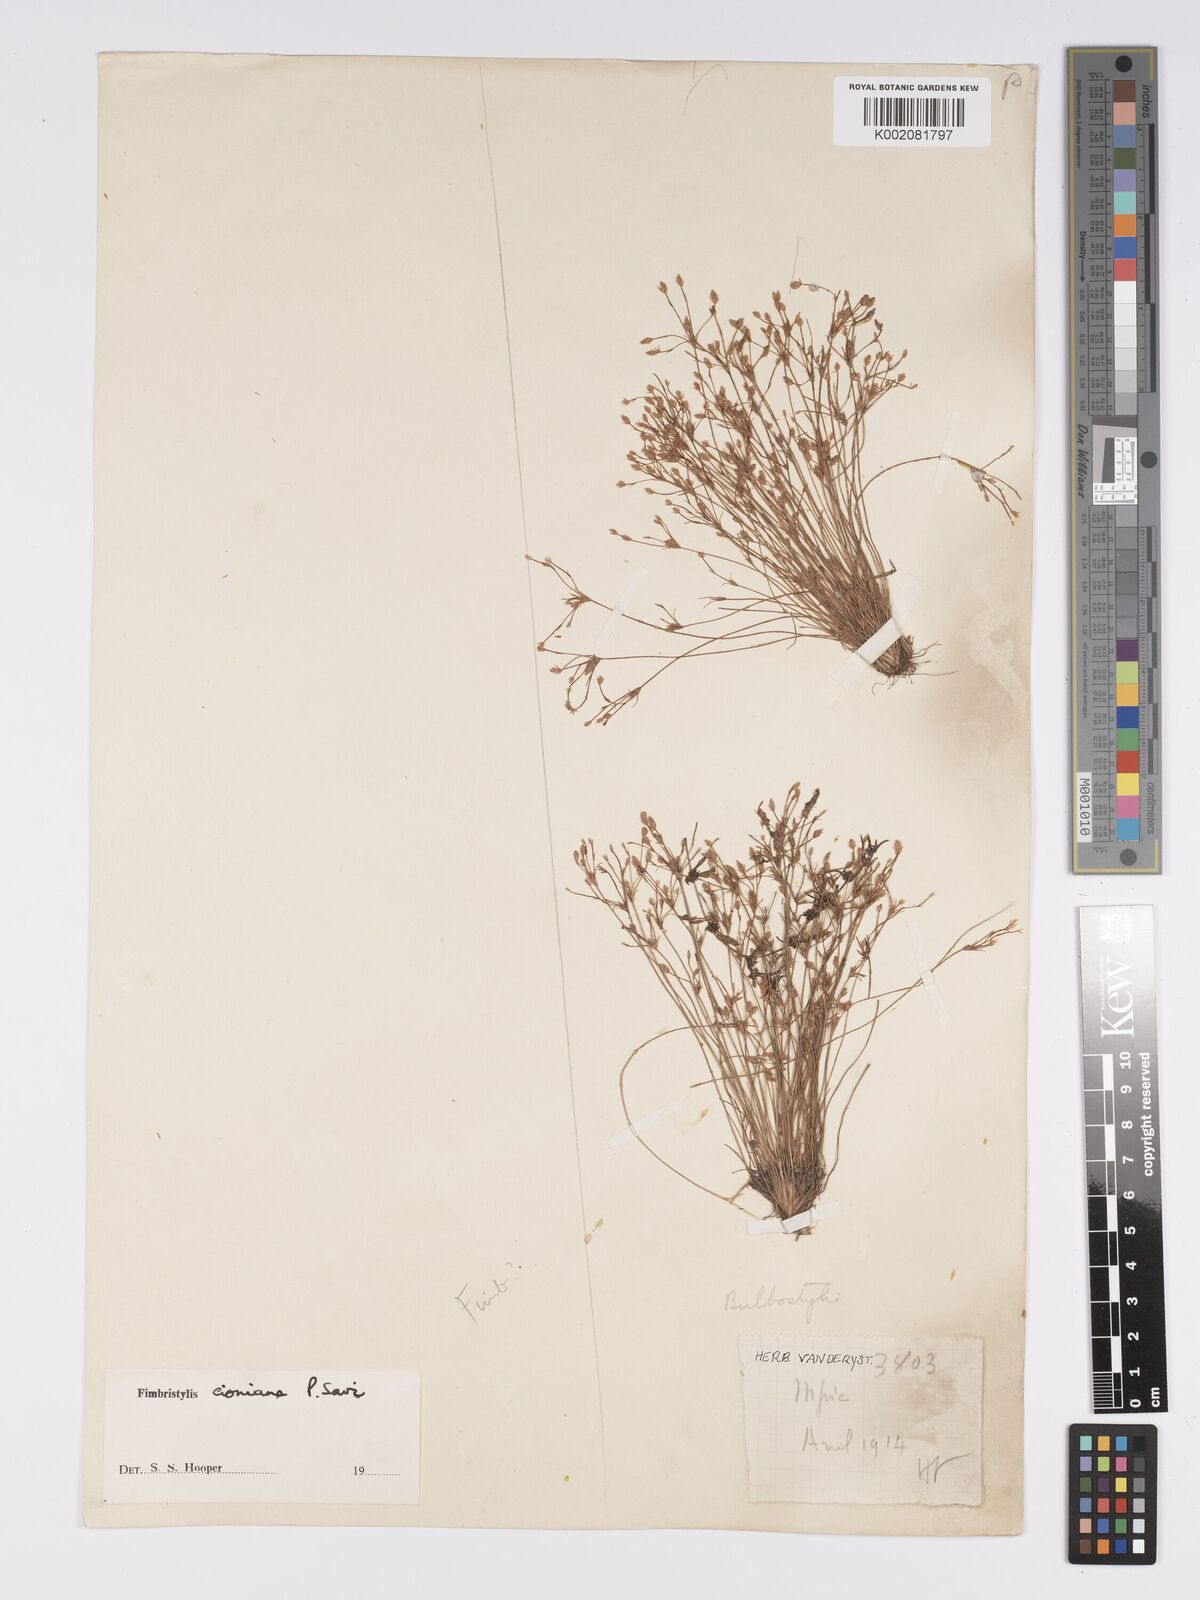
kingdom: Plantae
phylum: Tracheophyta
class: Liliopsida
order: Poales
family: Cyperaceae
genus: Bulbostylis
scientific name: Bulbostylis cioniana
